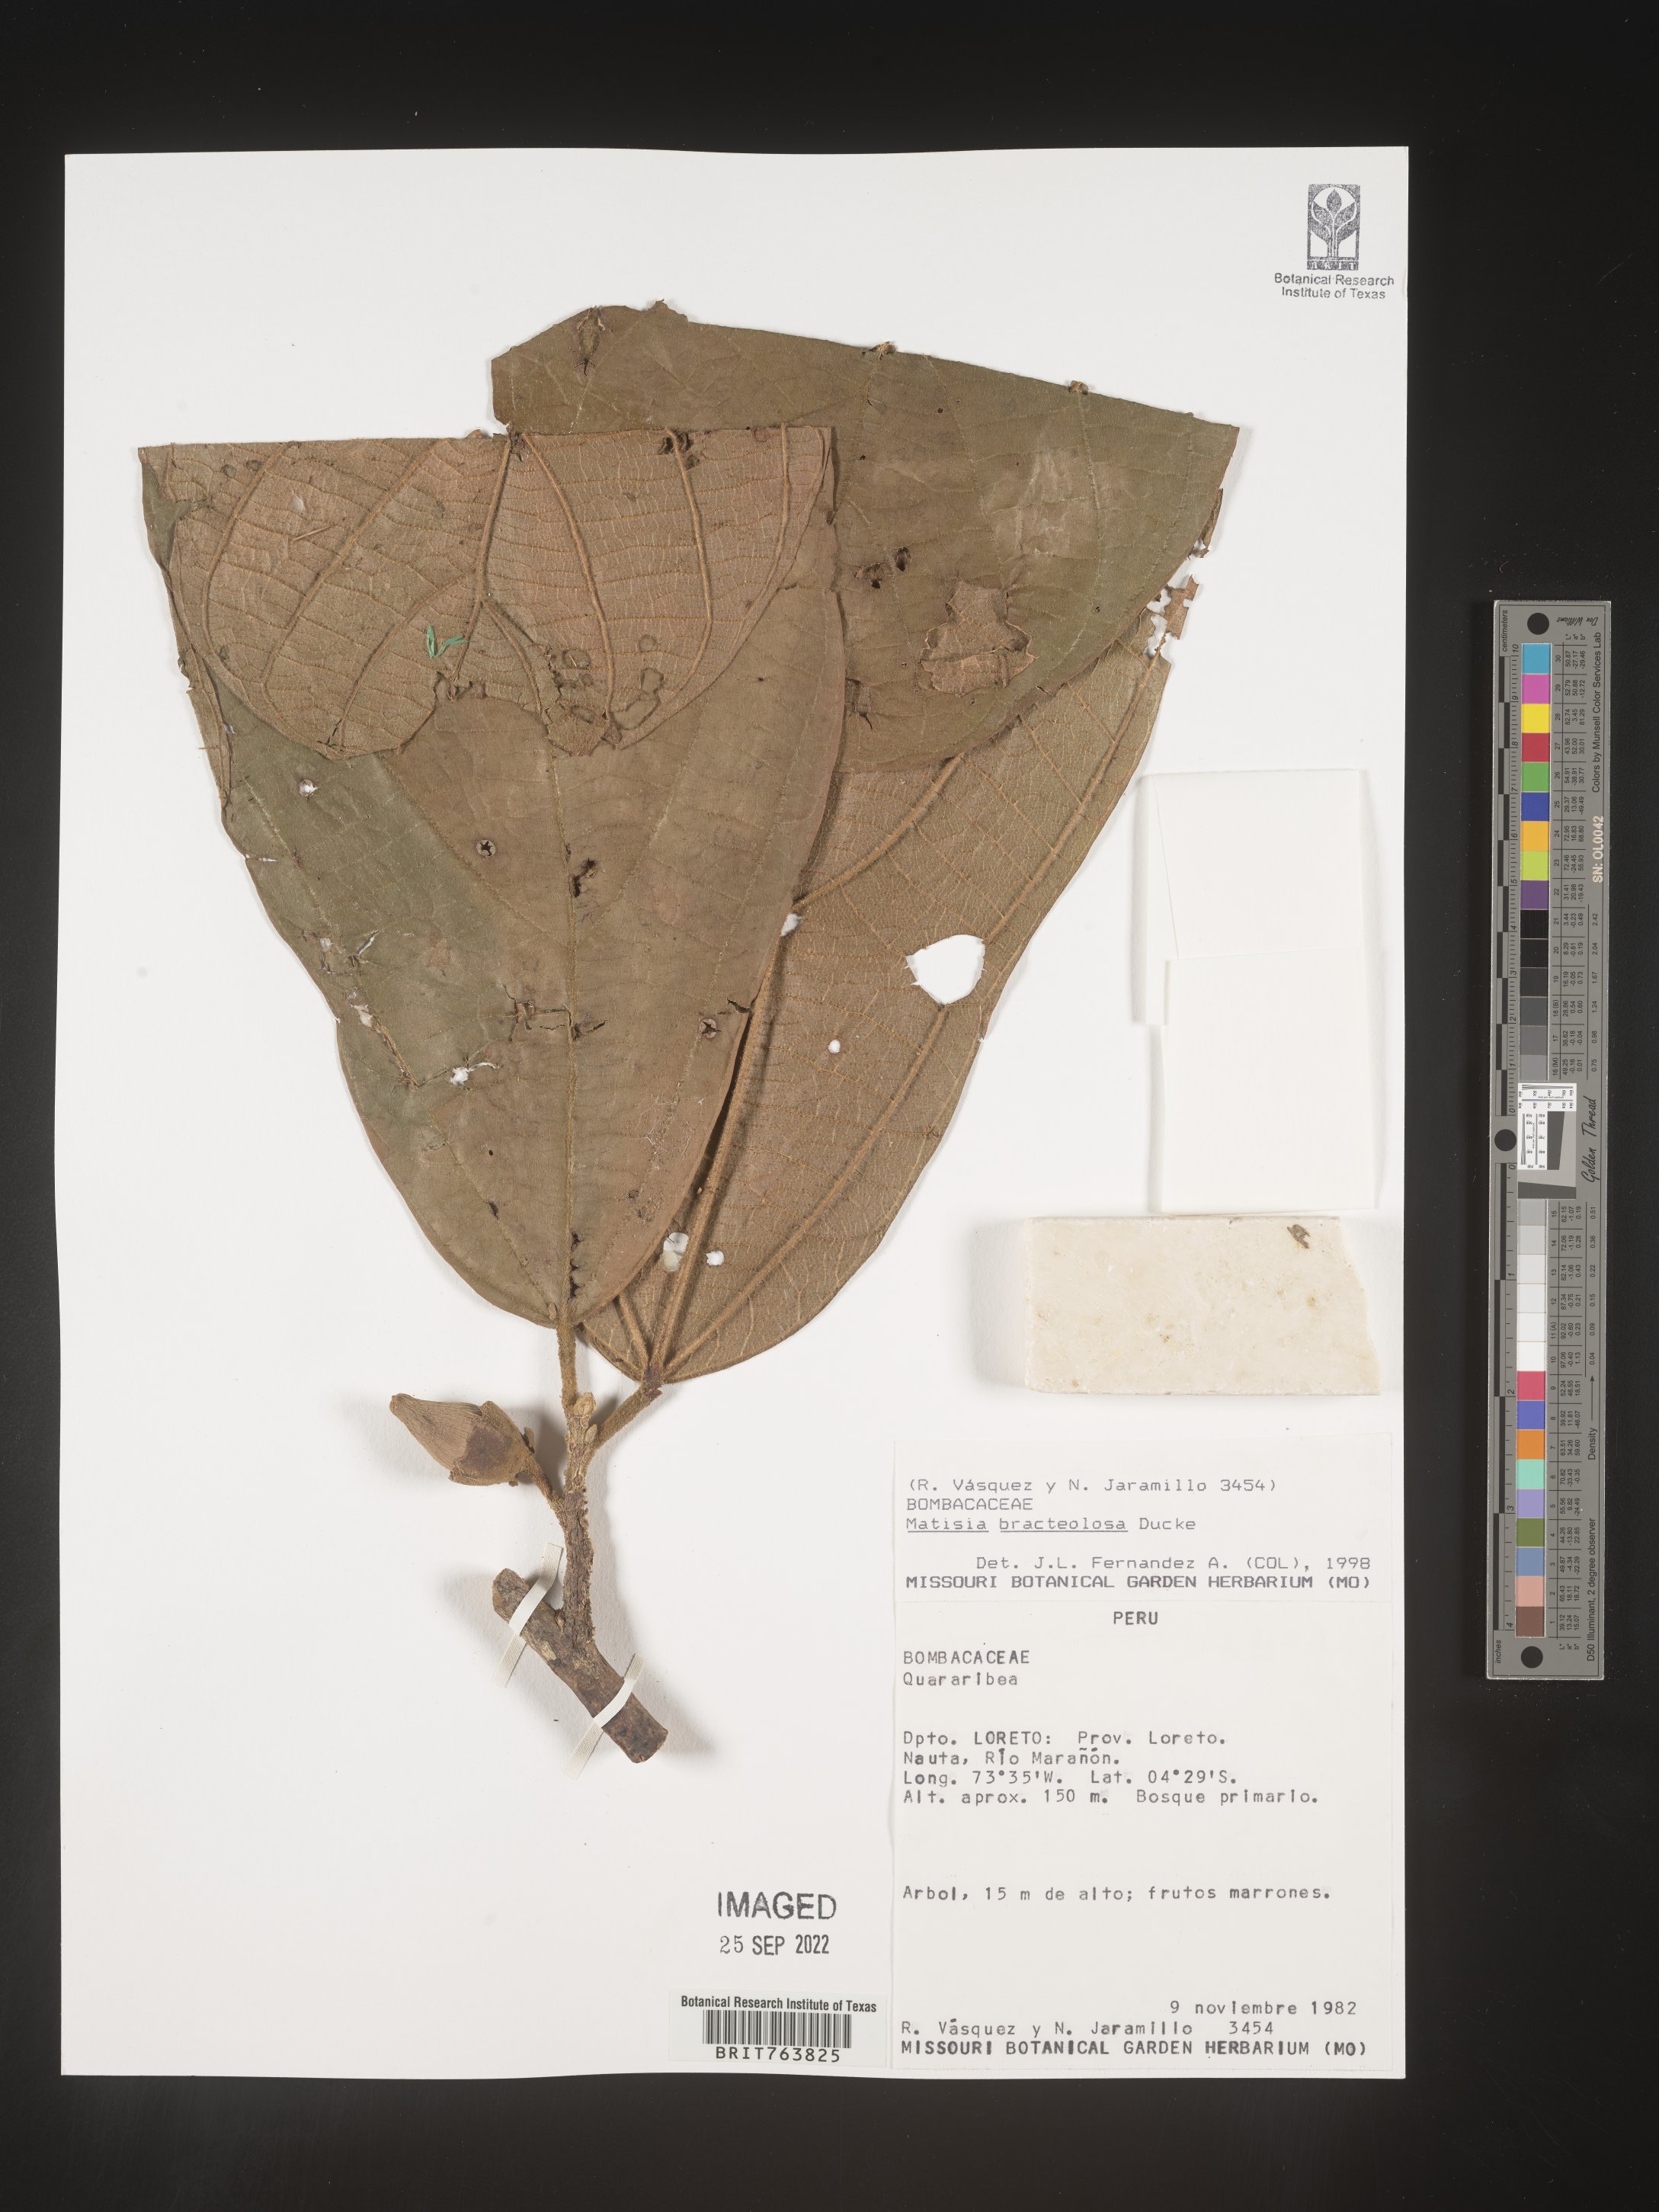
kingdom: Plantae
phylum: Tracheophyta
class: Magnoliopsida
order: Malvales
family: Malvaceae
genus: Matisia
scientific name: Matisia
